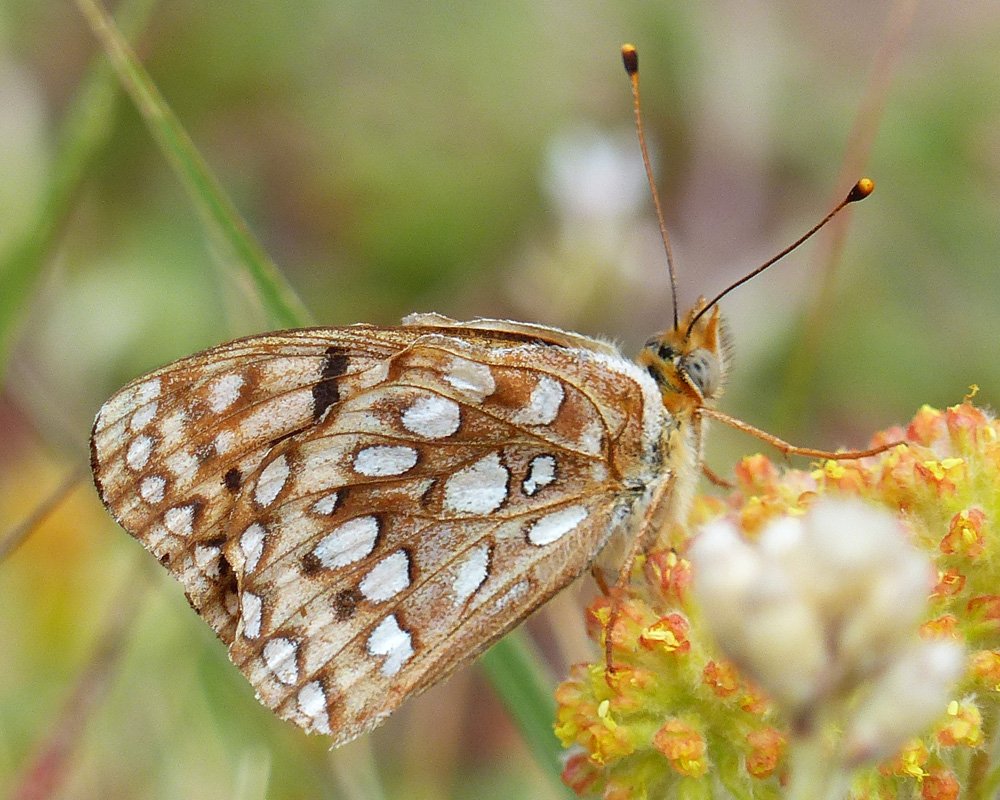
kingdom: Animalia
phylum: Arthropoda
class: Insecta
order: Lepidoptera
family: Nymphalidae
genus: Speyeria
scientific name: Speyeria coronis
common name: Coronis Fritillary
